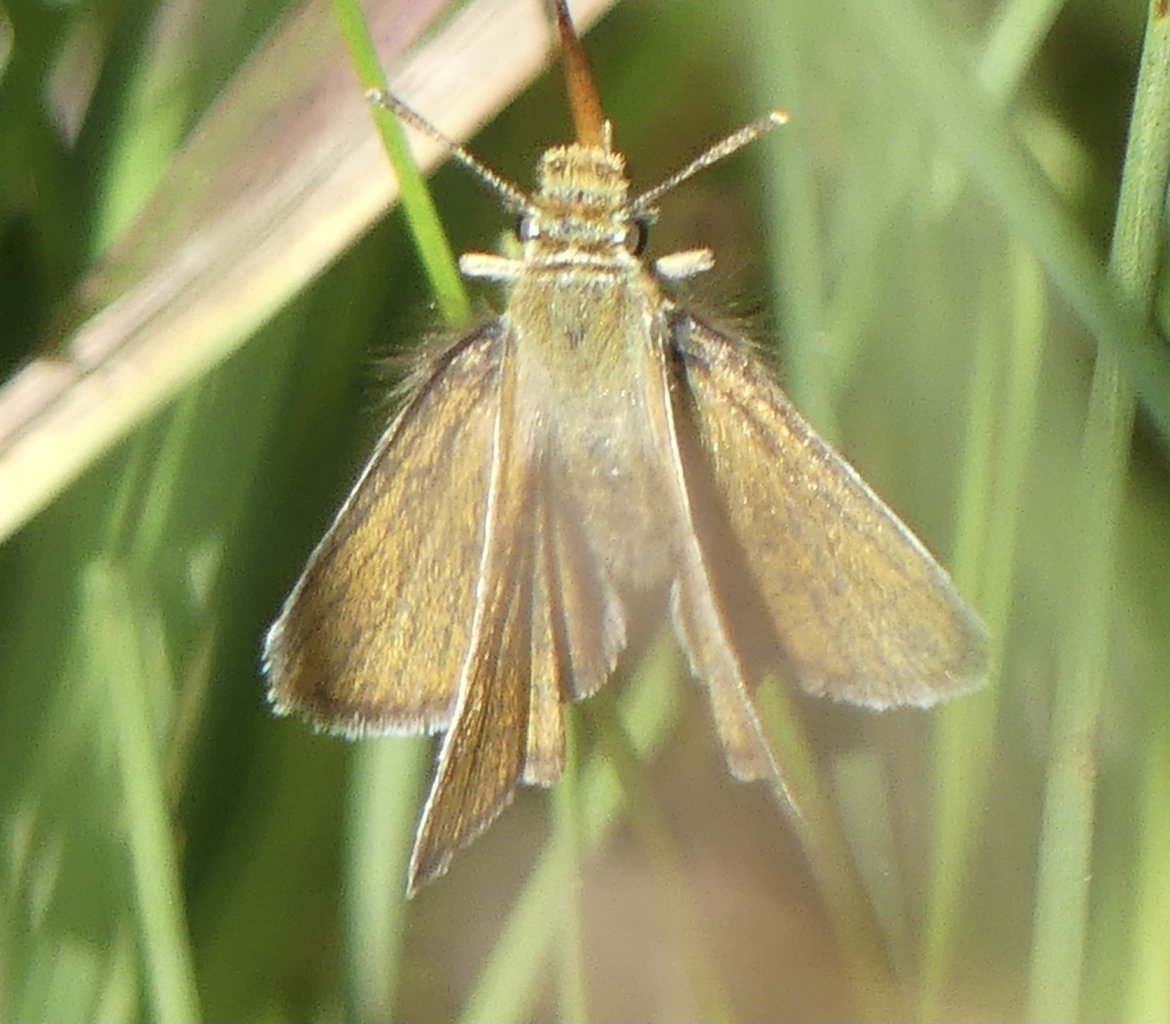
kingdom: Animalia
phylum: Arthropoda
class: Insecta
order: Lepidoptera
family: Hesperiidae
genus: Oarisma
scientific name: Oarisma garita
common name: Garita Skipperling
